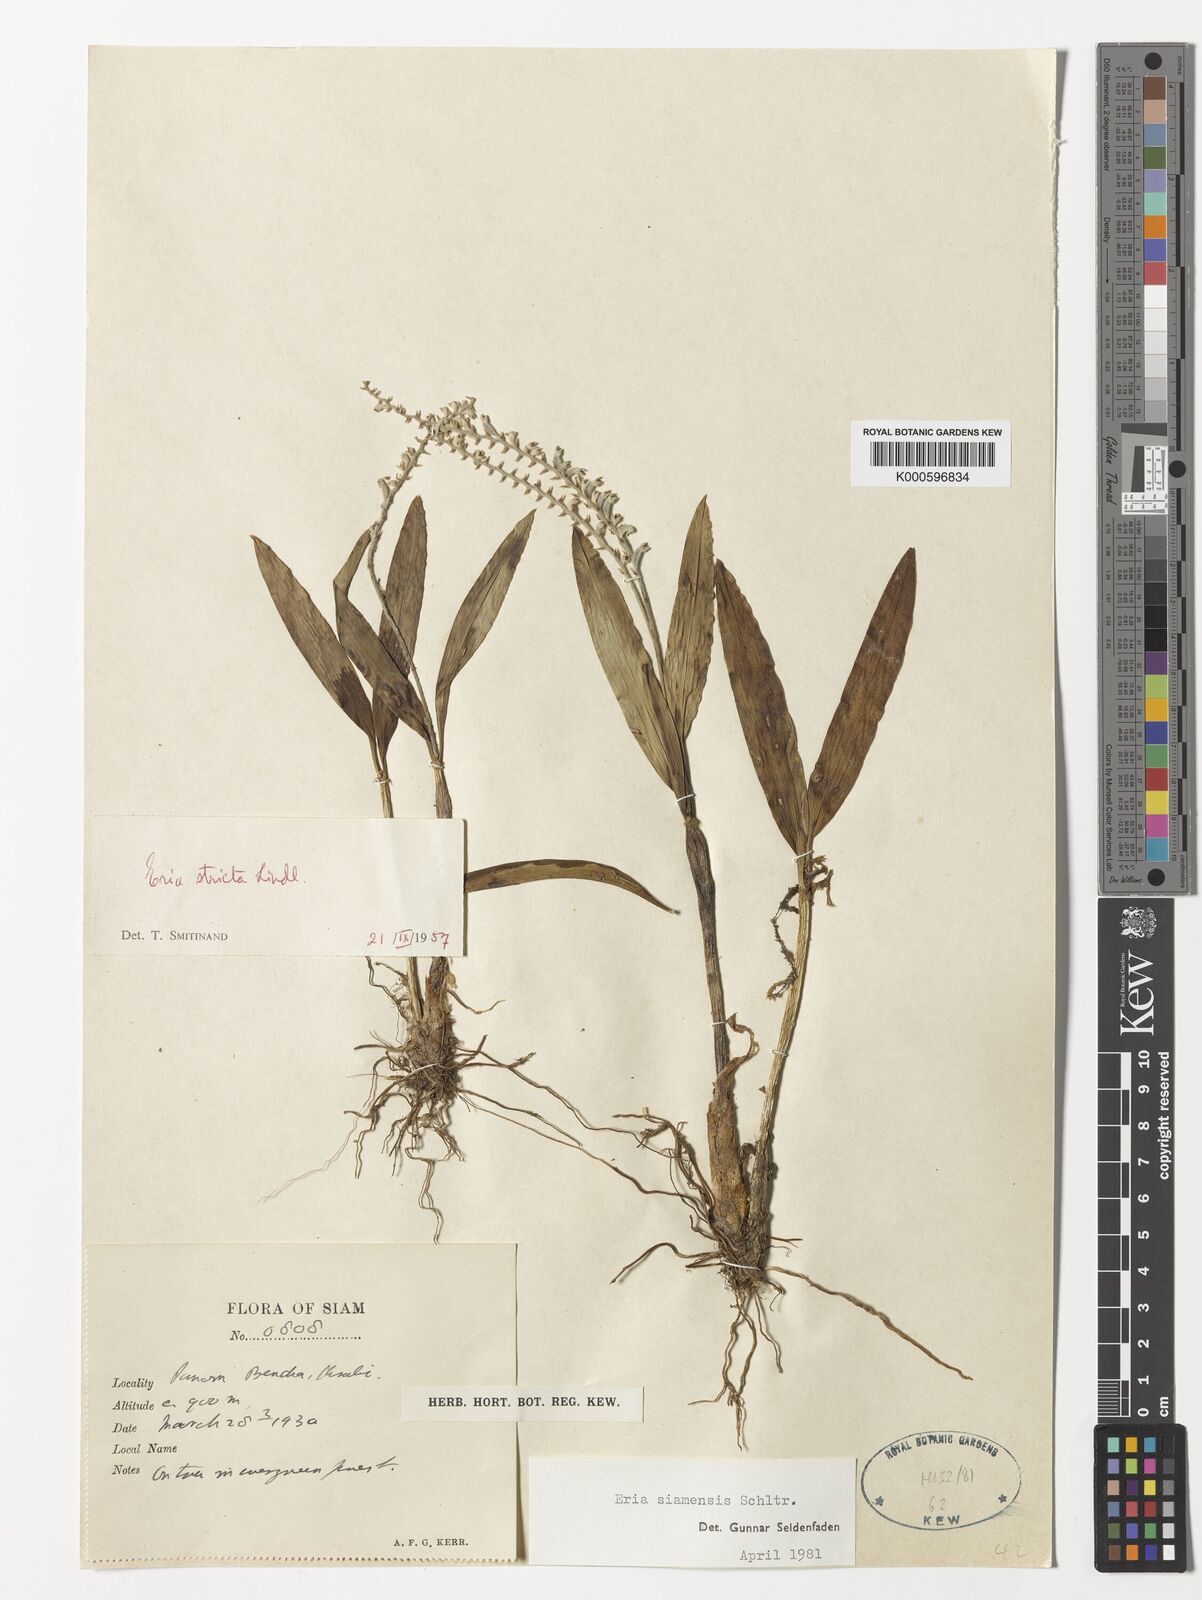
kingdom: Plantae
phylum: Tracheophyta
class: Liliopsida
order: Asparagales
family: Orchidaceae
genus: Cryptochilus
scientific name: Cryptochilus siamensis
